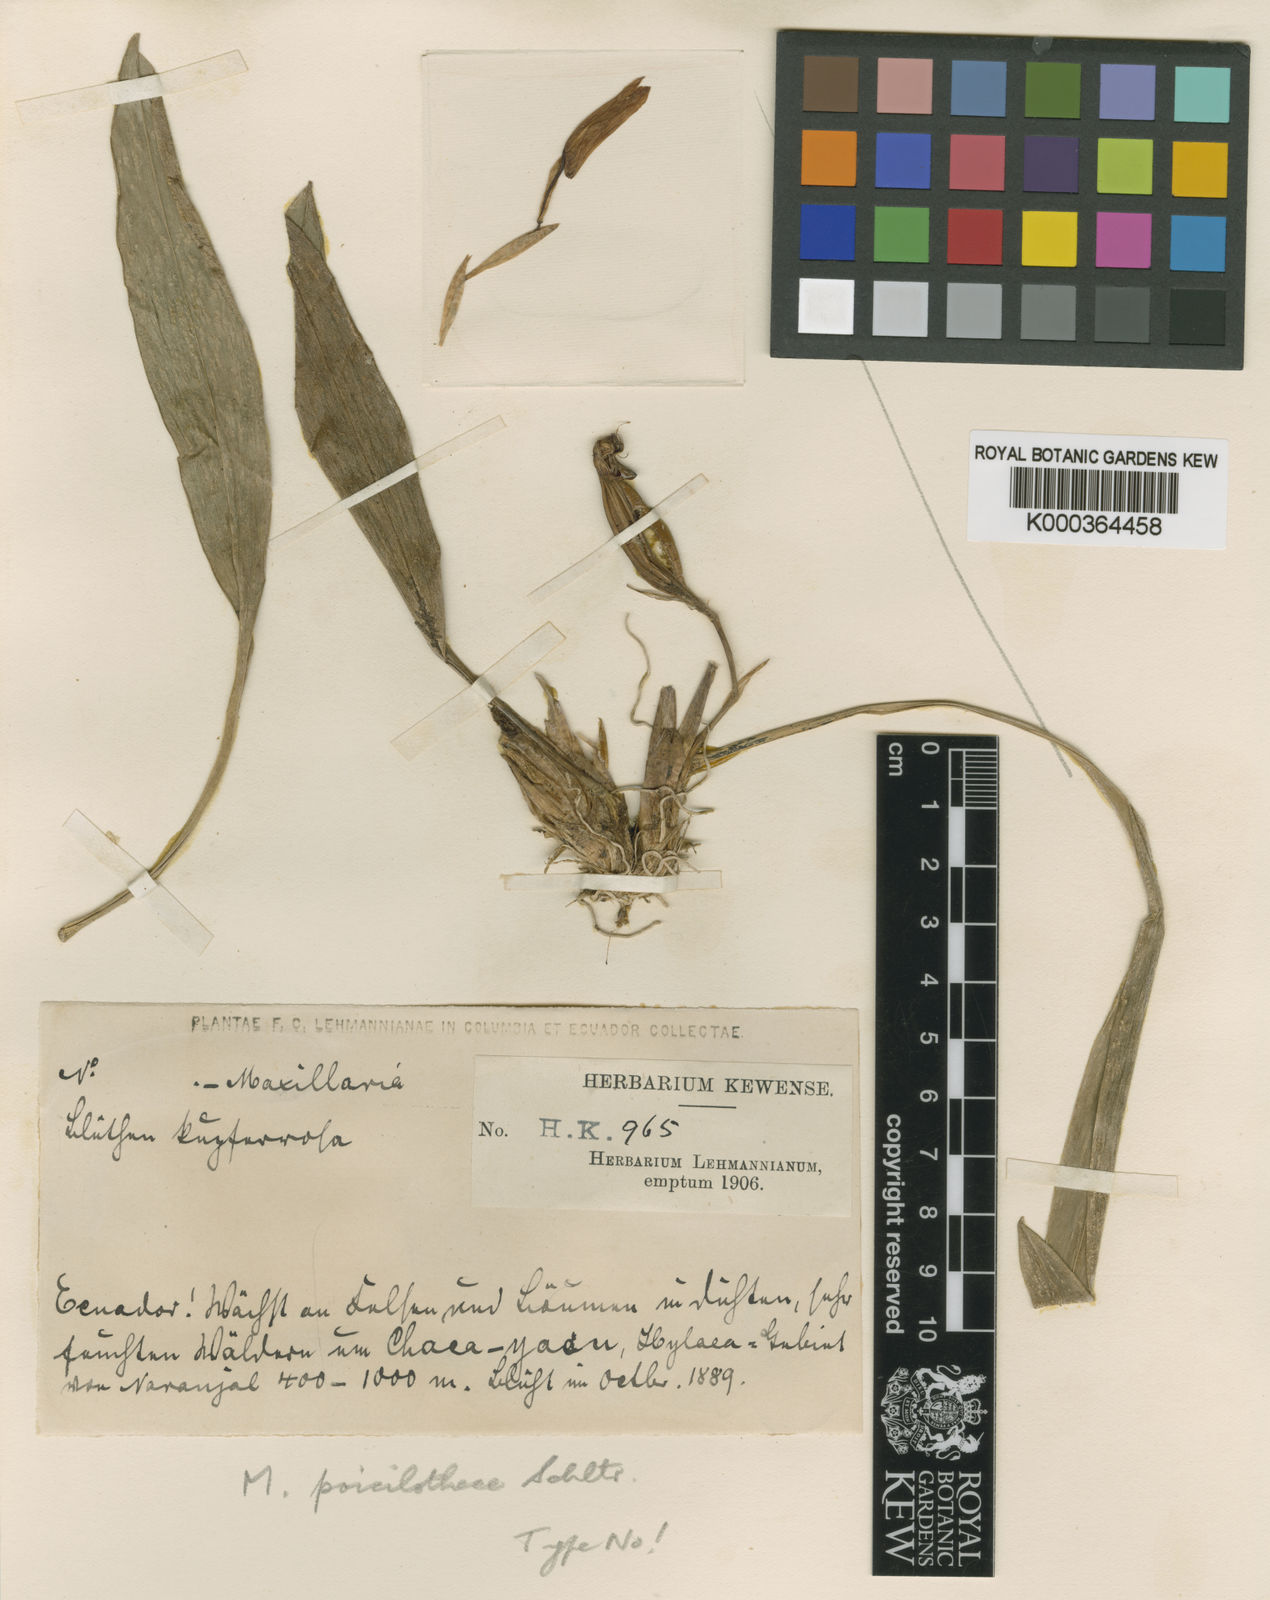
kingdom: Plantae
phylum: Tracheophyta
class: Liliopsida
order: Asparagales
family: Orchidaceae
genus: Maxillaria
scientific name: Maxillaria poicilothece
